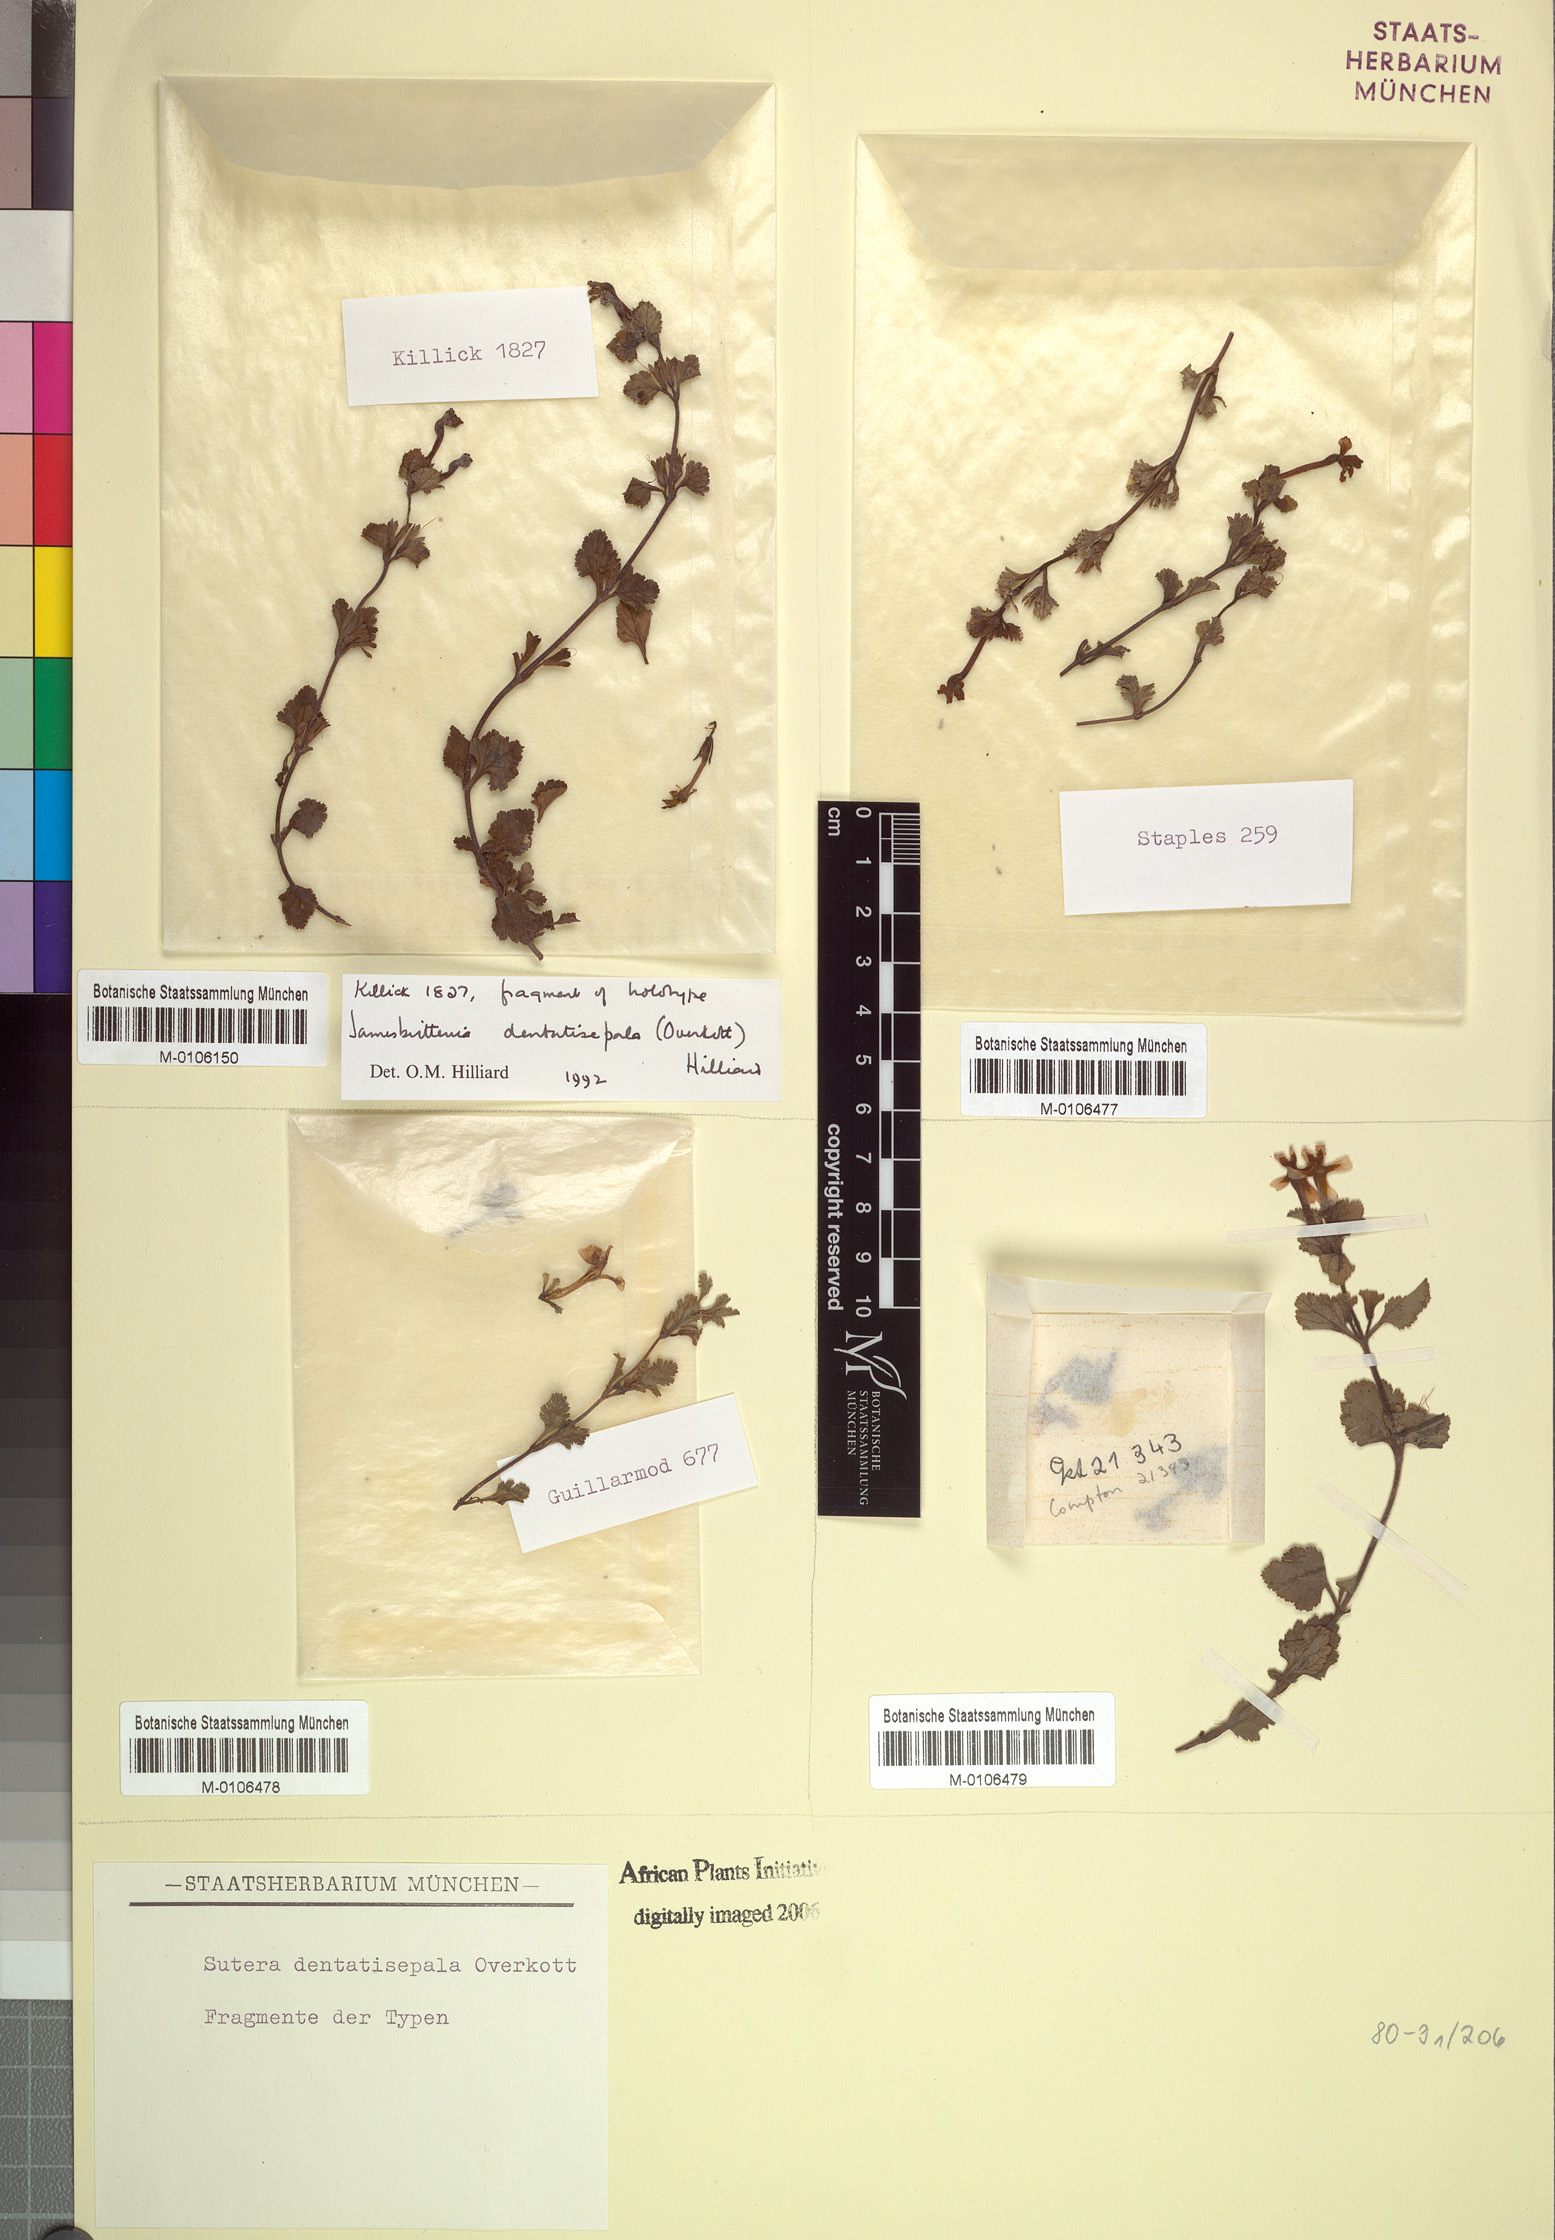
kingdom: Plantae
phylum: Tracheophyta
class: Magnoliopsida
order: Lamiales
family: Scrophulariaceae
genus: Jamesbrittenia
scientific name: Jamesbrittenia dentatisepala
